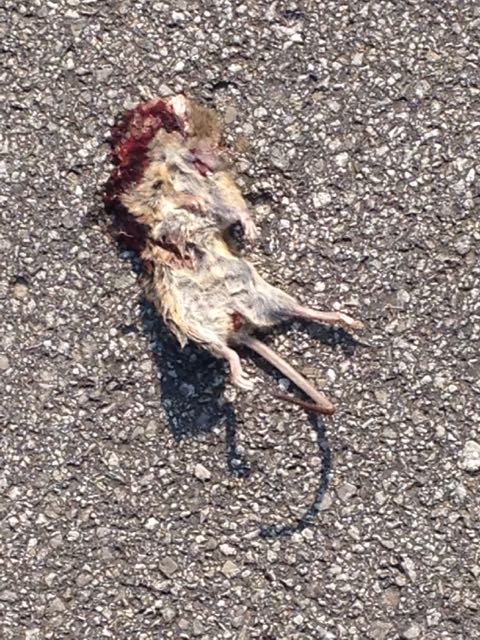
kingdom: Animalia
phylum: Chordata
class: Mammalia
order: Rodentia
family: Muridae
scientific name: Muridae
